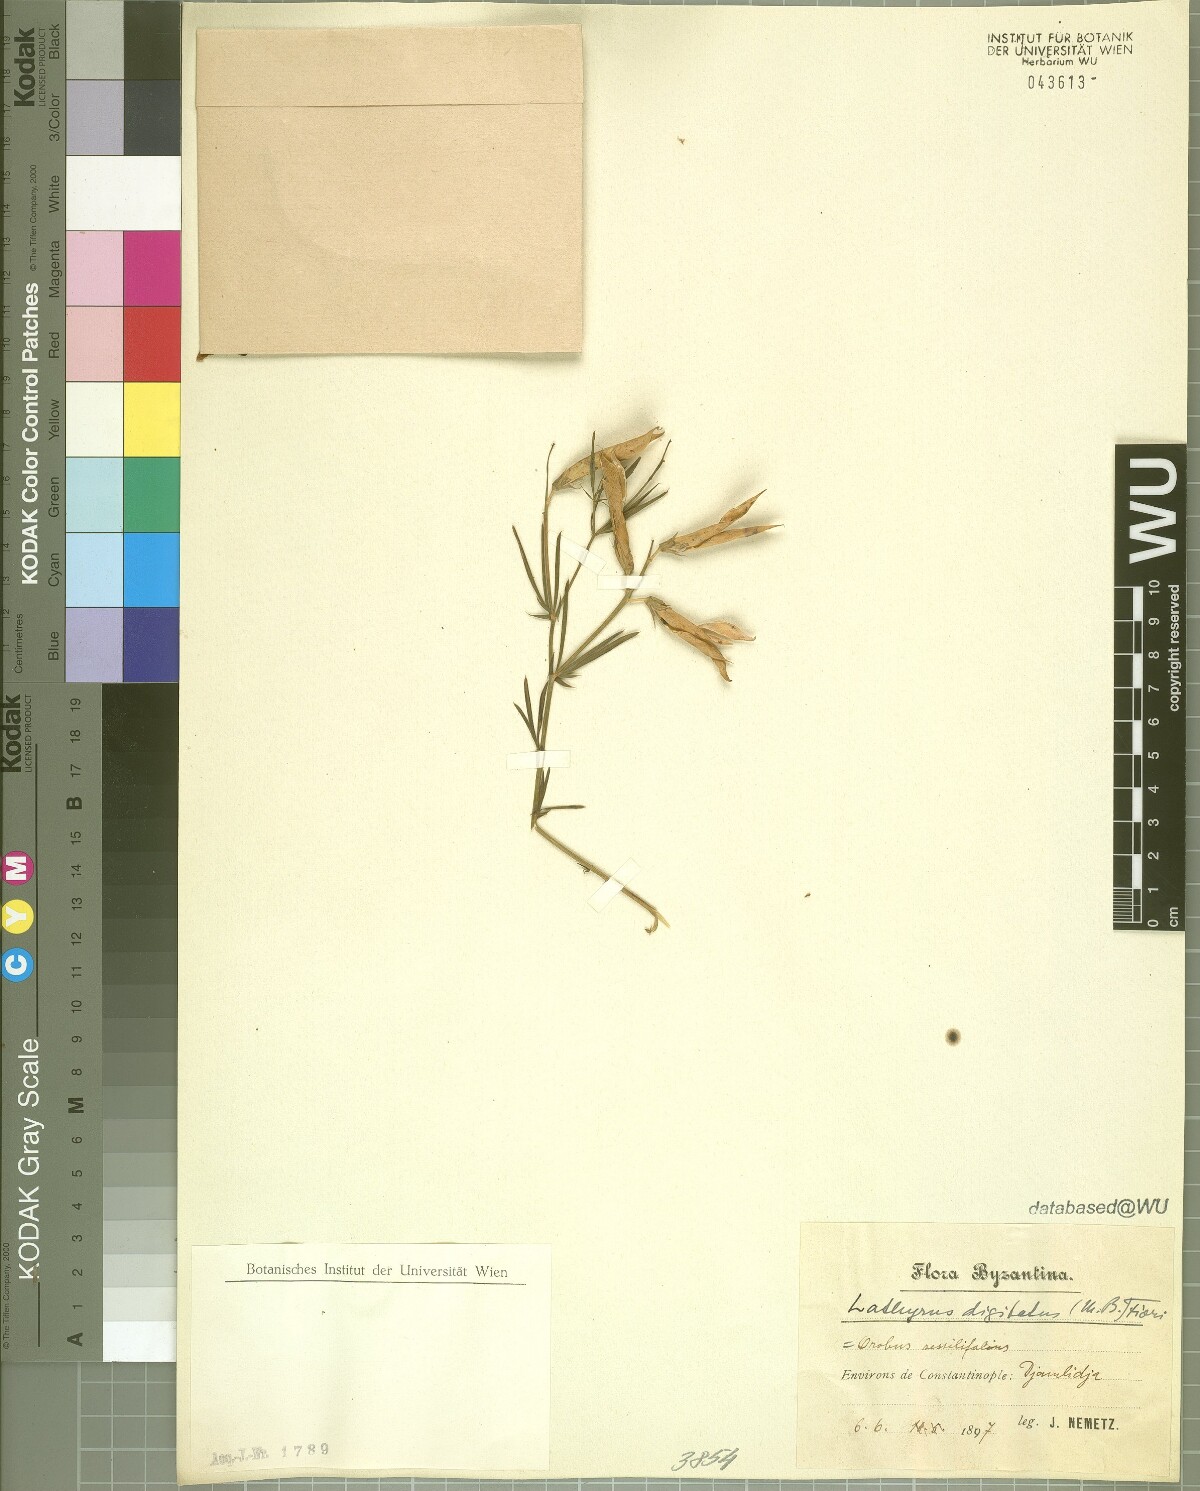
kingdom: Plantae
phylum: Tracheophyta
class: Magnoliopsida
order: Fabales
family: Fabaceae
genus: Lathyrus
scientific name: Lathyrus digitatus
